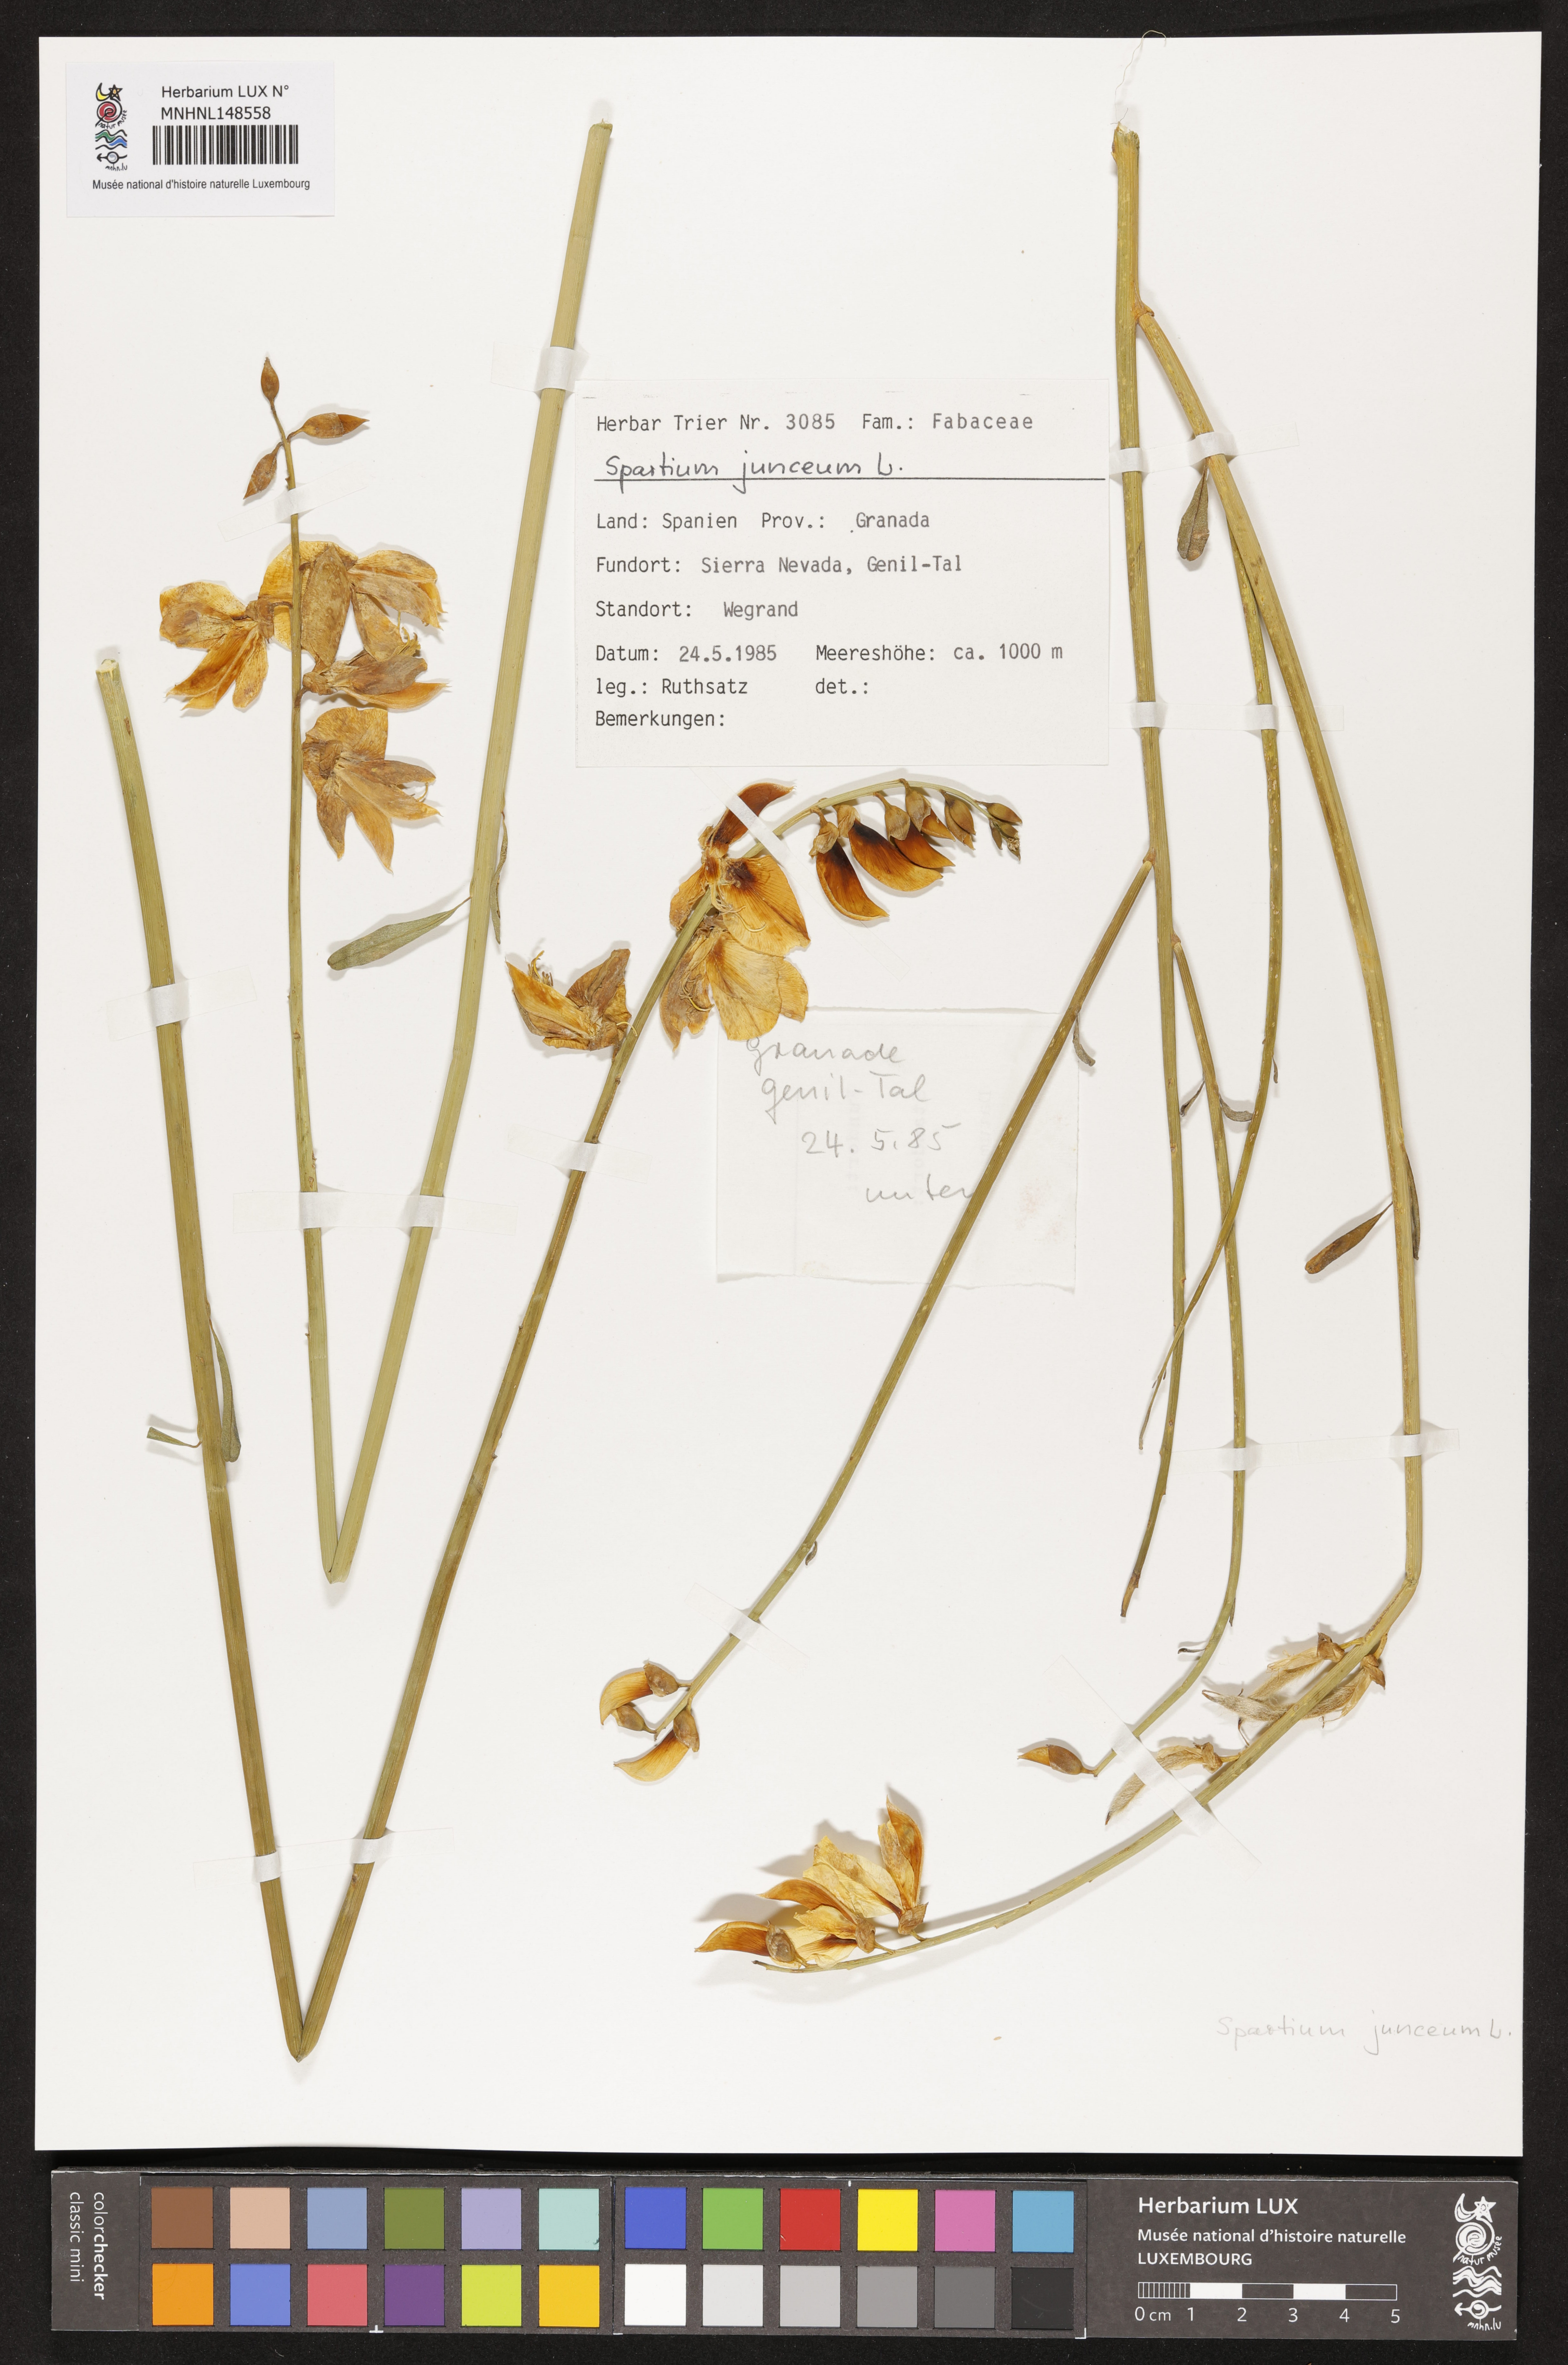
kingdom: Plantae
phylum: Tracheophyta
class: Magnoliopsida
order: Fabales
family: Fabaceae
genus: Spartium
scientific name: Spartium junceum
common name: Spanish broom
